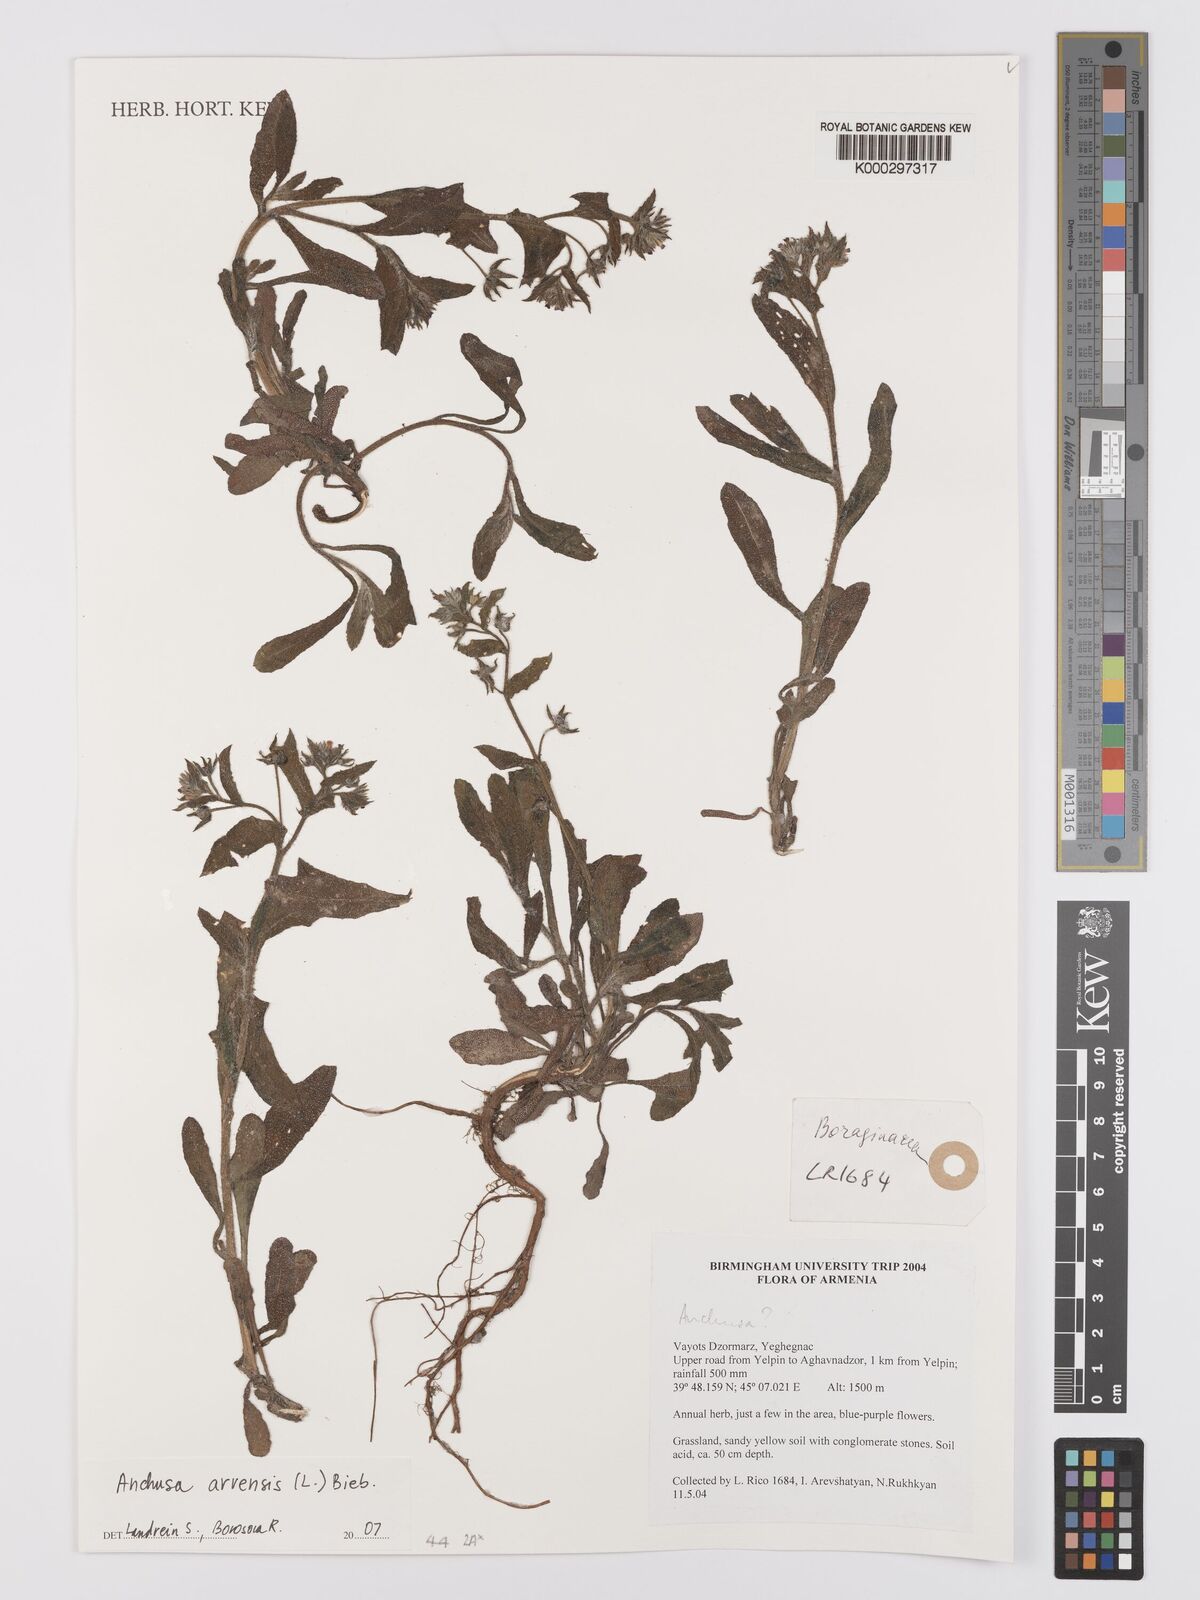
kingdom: Plantae
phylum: Tracheophyta
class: Magnoliopsida
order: Boraginales
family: Boraginaceae
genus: Lycopsis
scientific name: Lycopsis arvensis
